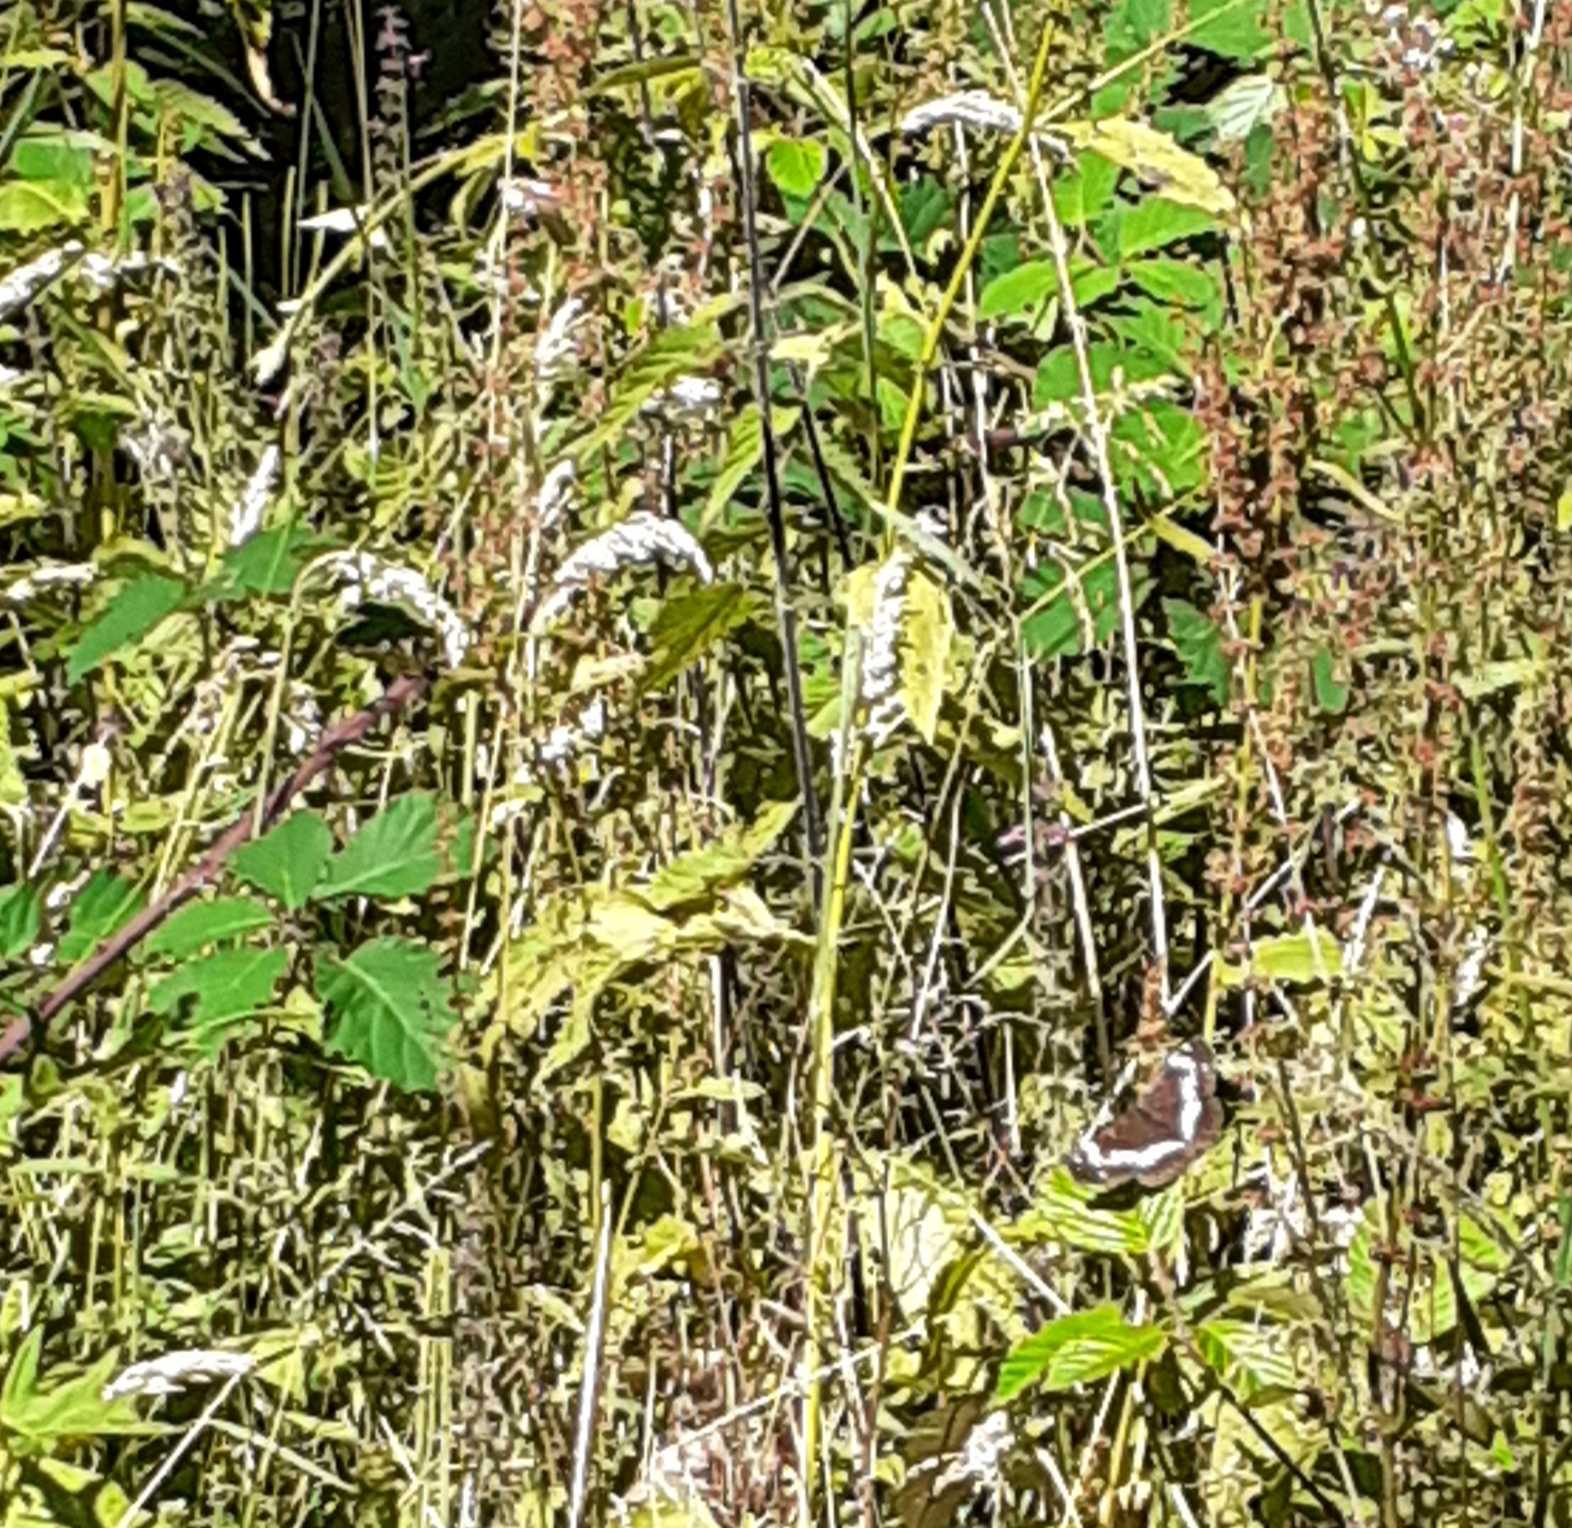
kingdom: Animalia
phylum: Arthropoda
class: Insecta
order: Lepidoptera
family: Nymphalidae
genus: Ladoga
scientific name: Ladoga camilla
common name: Hvid admiral
